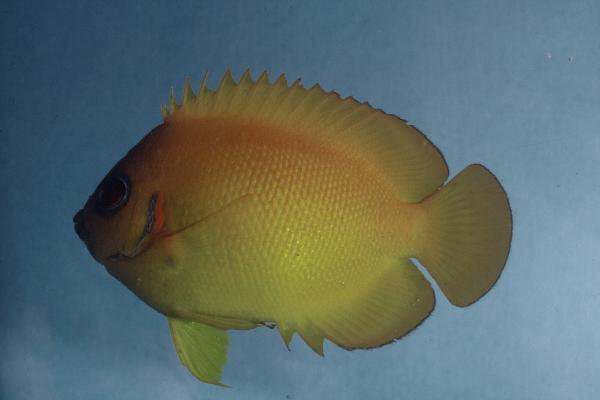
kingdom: Animalia
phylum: Chordata
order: Perciformes
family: Pomacanthidae
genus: Centropyge
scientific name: Centropyge flavissima
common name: Lemonpeel angelfish
